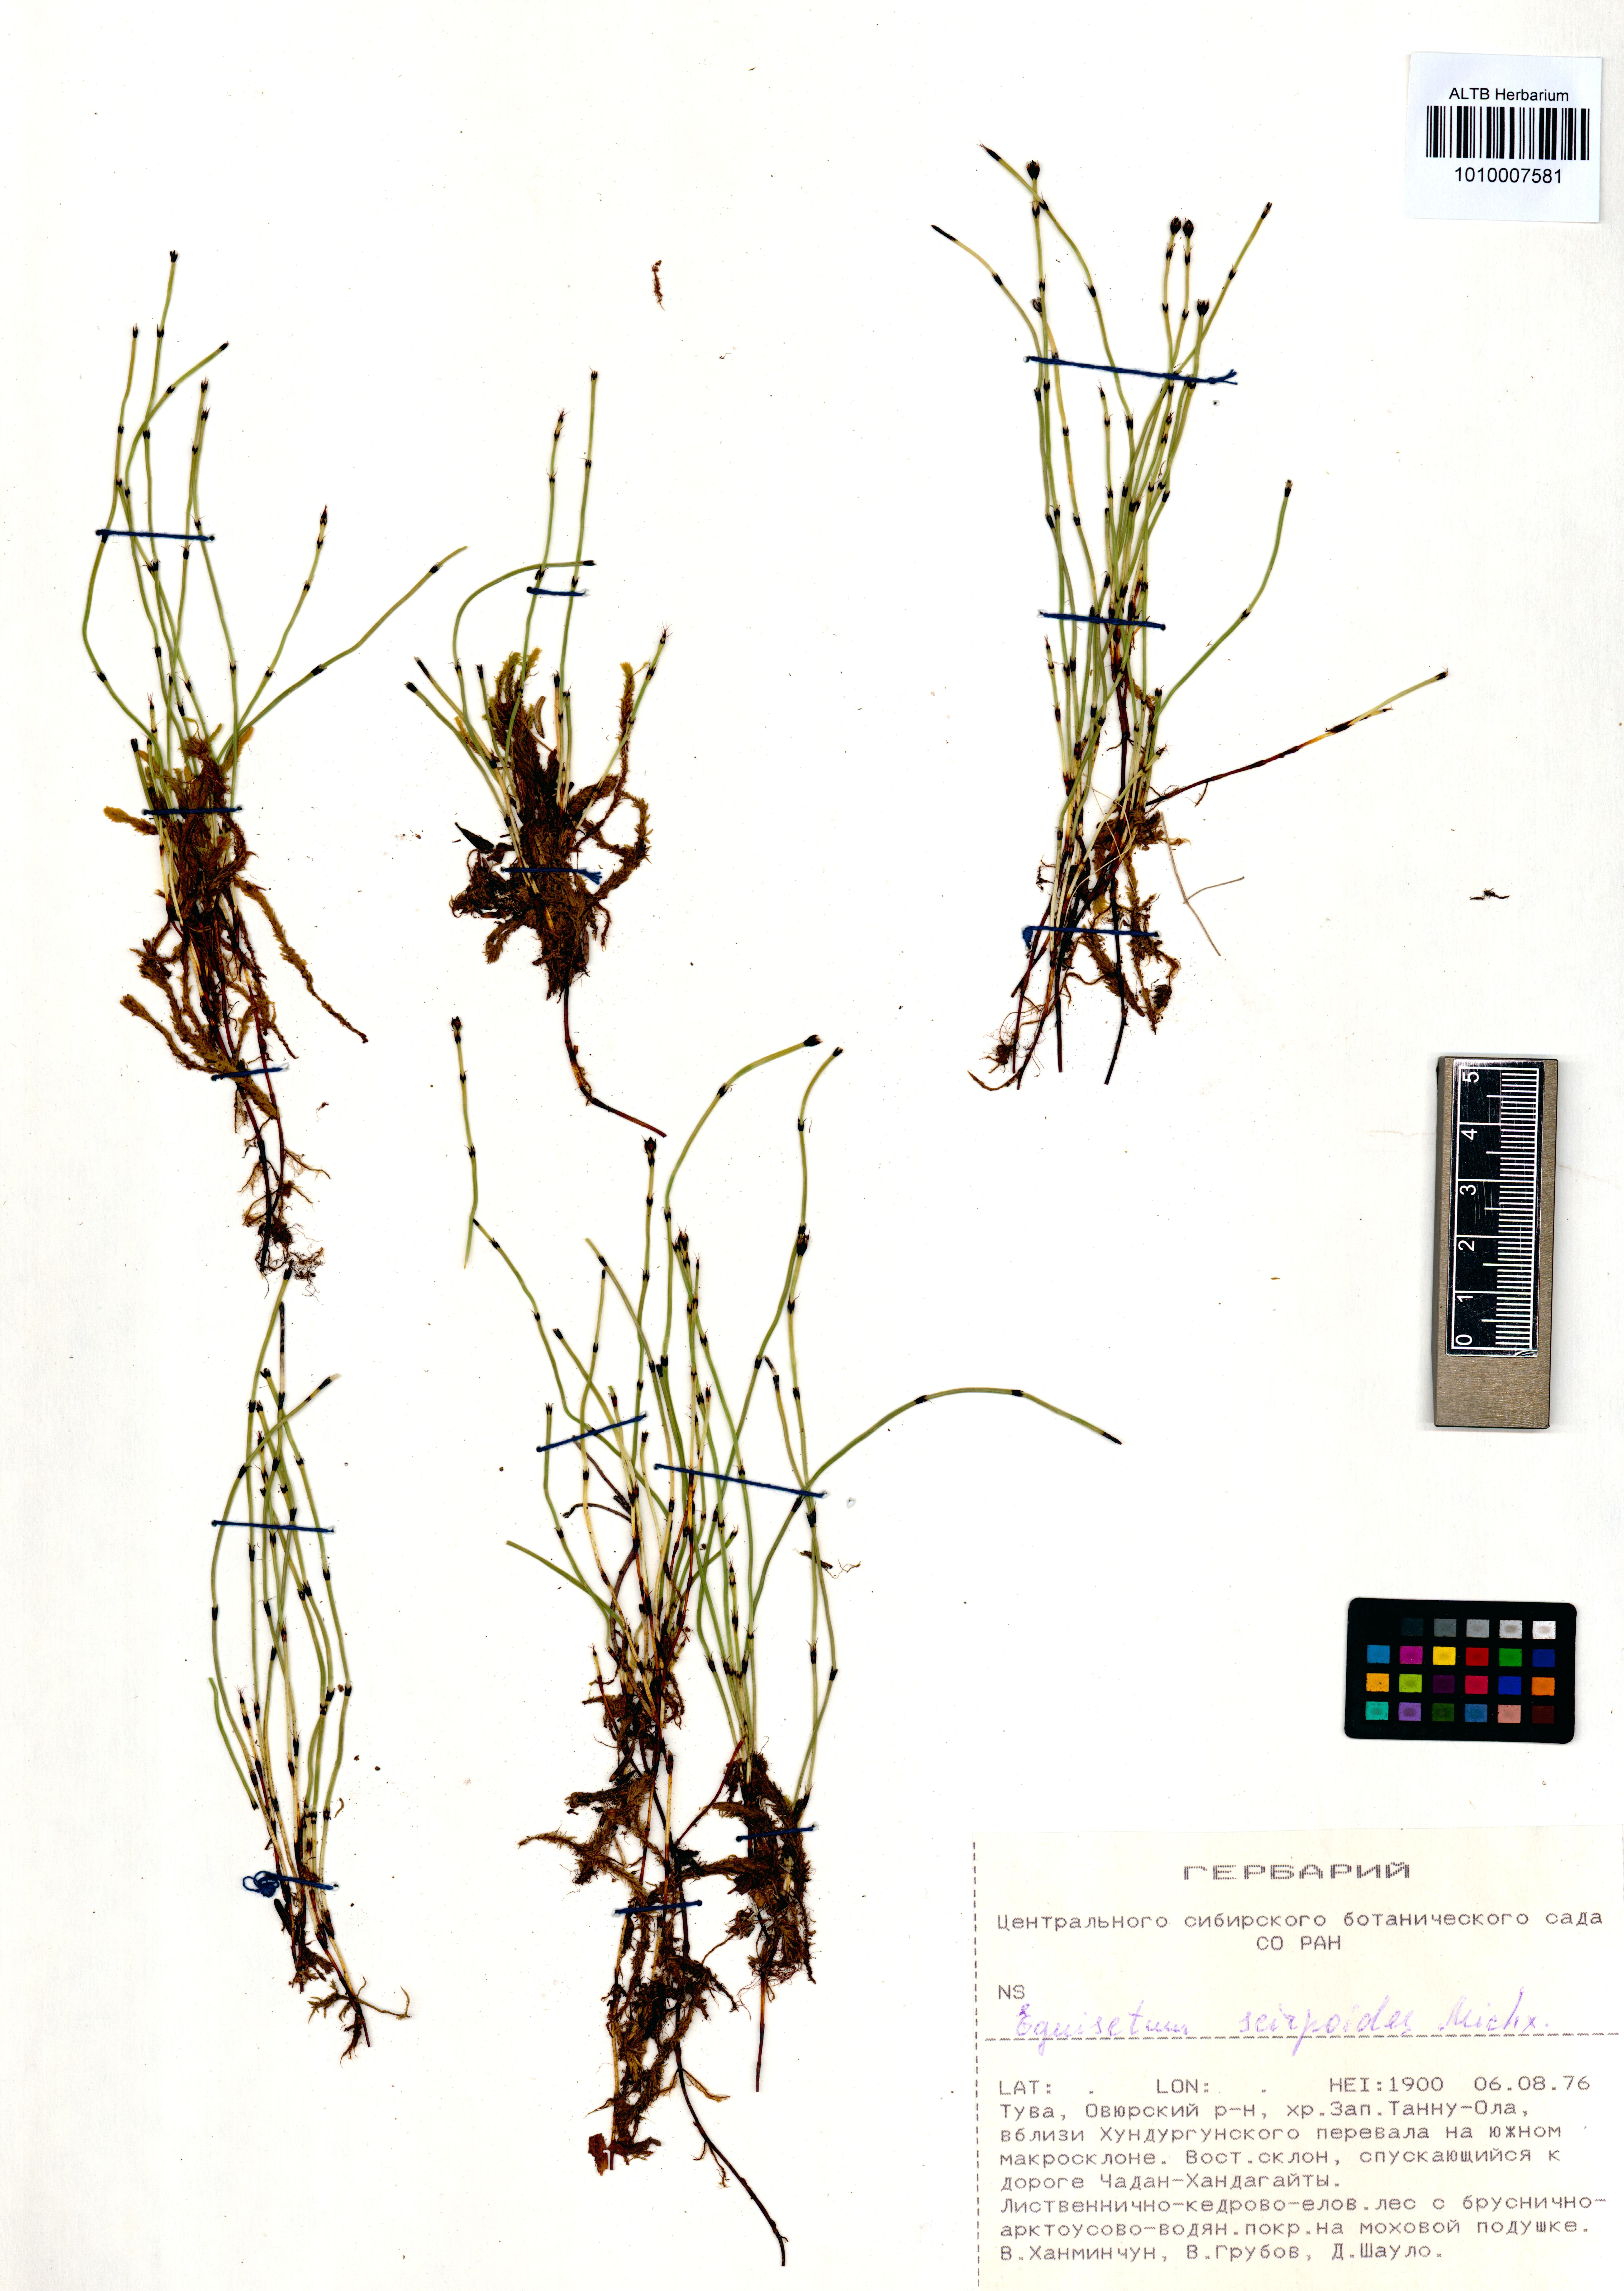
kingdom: Plantae
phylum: Tracheophyta
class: Polypodiopsida
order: Equisetales
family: Equisetaceae
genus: Equisetum
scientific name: Equisetum scirpoides
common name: Delicate horsetail
